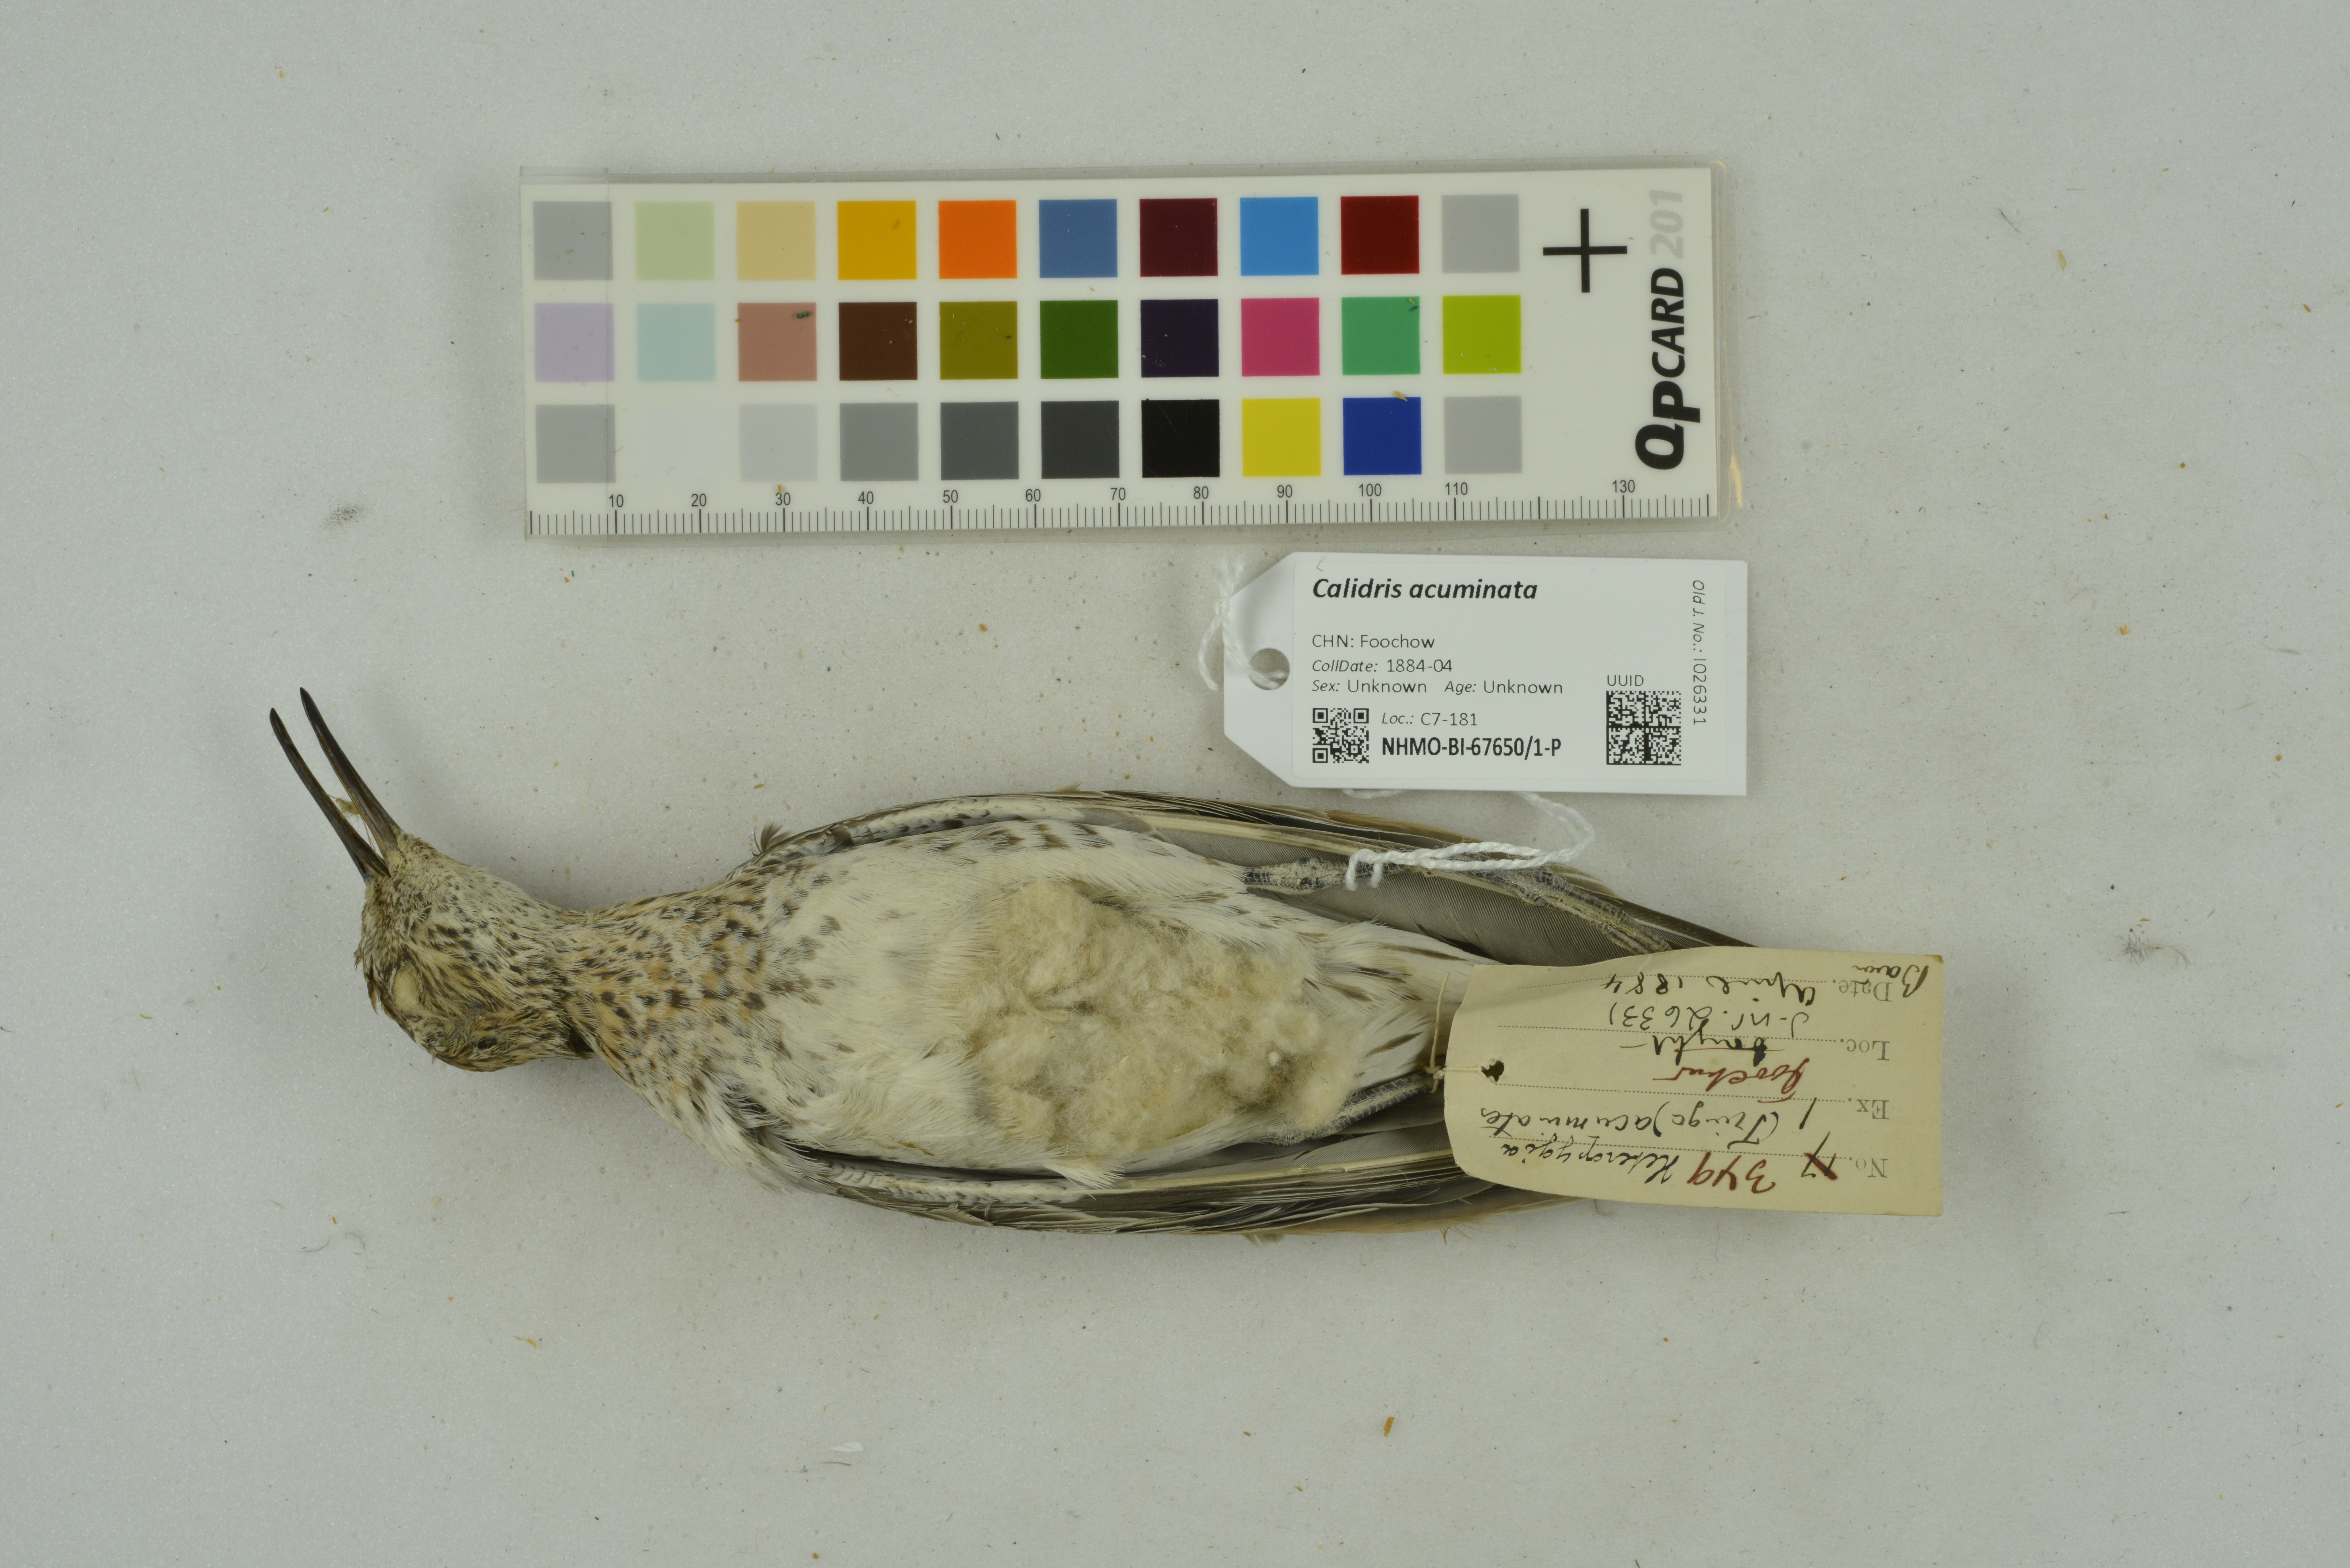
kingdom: Animalia
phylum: Chordata
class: Aves
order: Charadriiformes
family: Scolopacidae
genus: Calidris
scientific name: Calidris acuminata
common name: Sharp-tailed sandpiper
